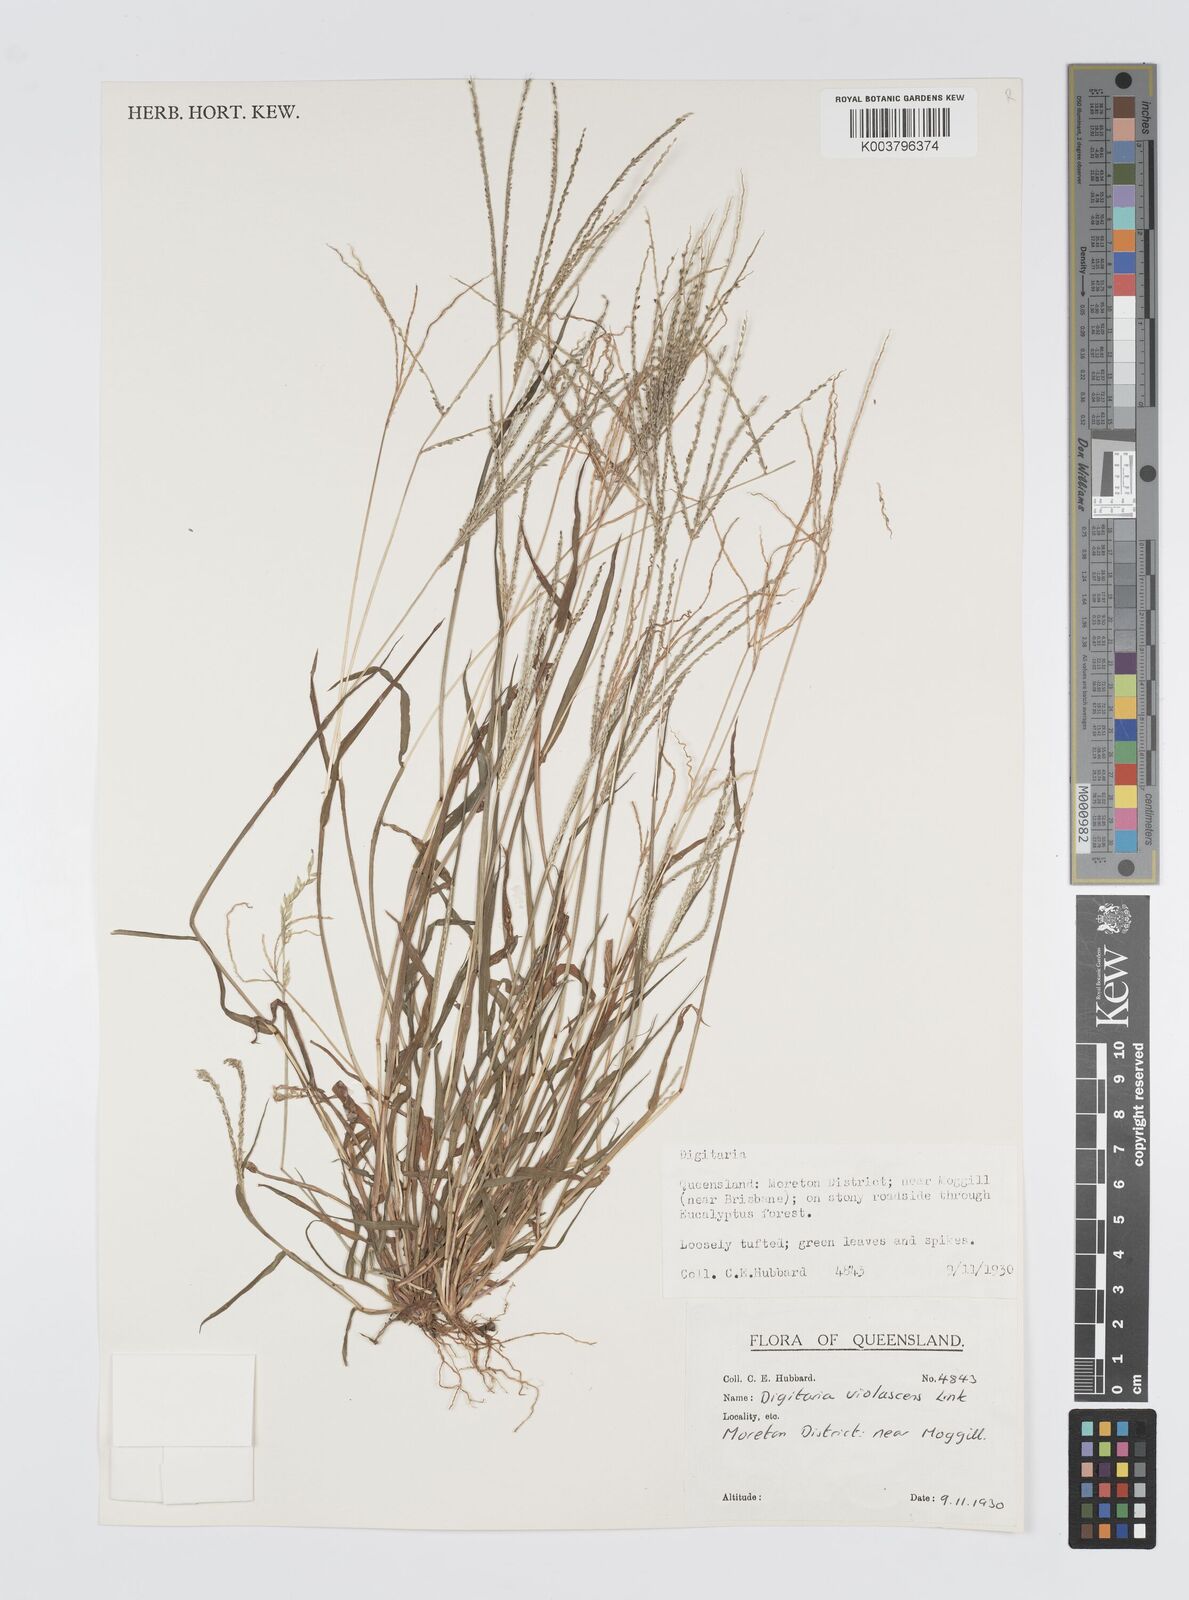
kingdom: Plantae
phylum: Tracheophyta
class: Liliopsida
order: Poales
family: Poaceae
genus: Digitaria
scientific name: Digitaria violascens
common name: Violet crabgrass
